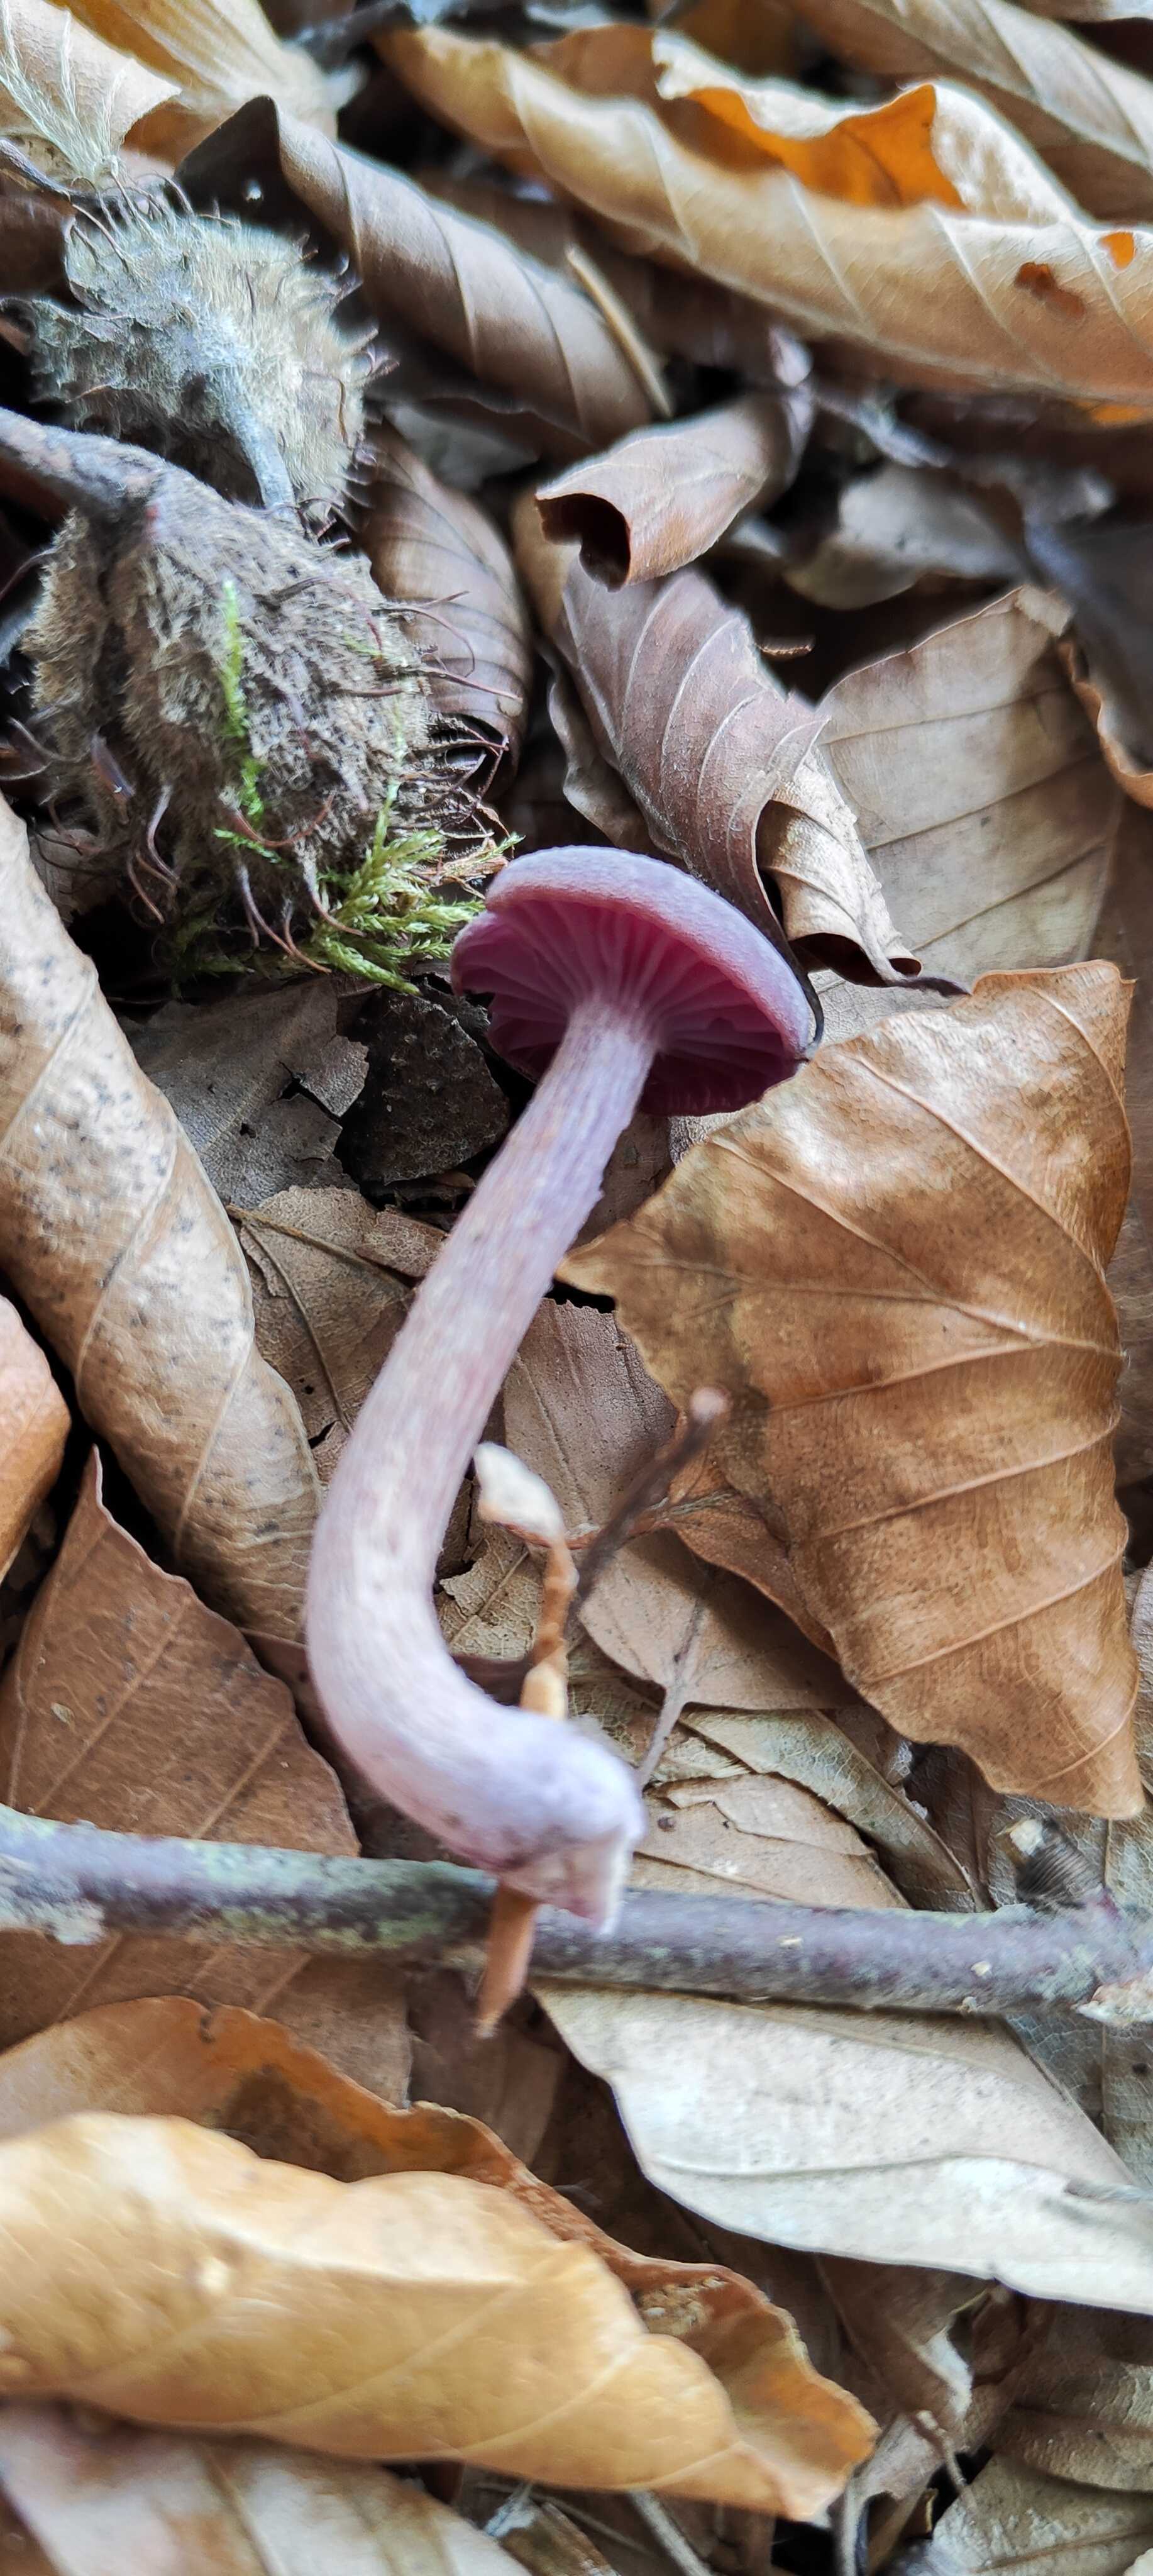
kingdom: Fungi
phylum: Basidiomycota
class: Agaricomycetes
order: Agaricales
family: Hydnangiaceae
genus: Laccaria
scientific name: Laccaria amethystina
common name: violet ametysthat
